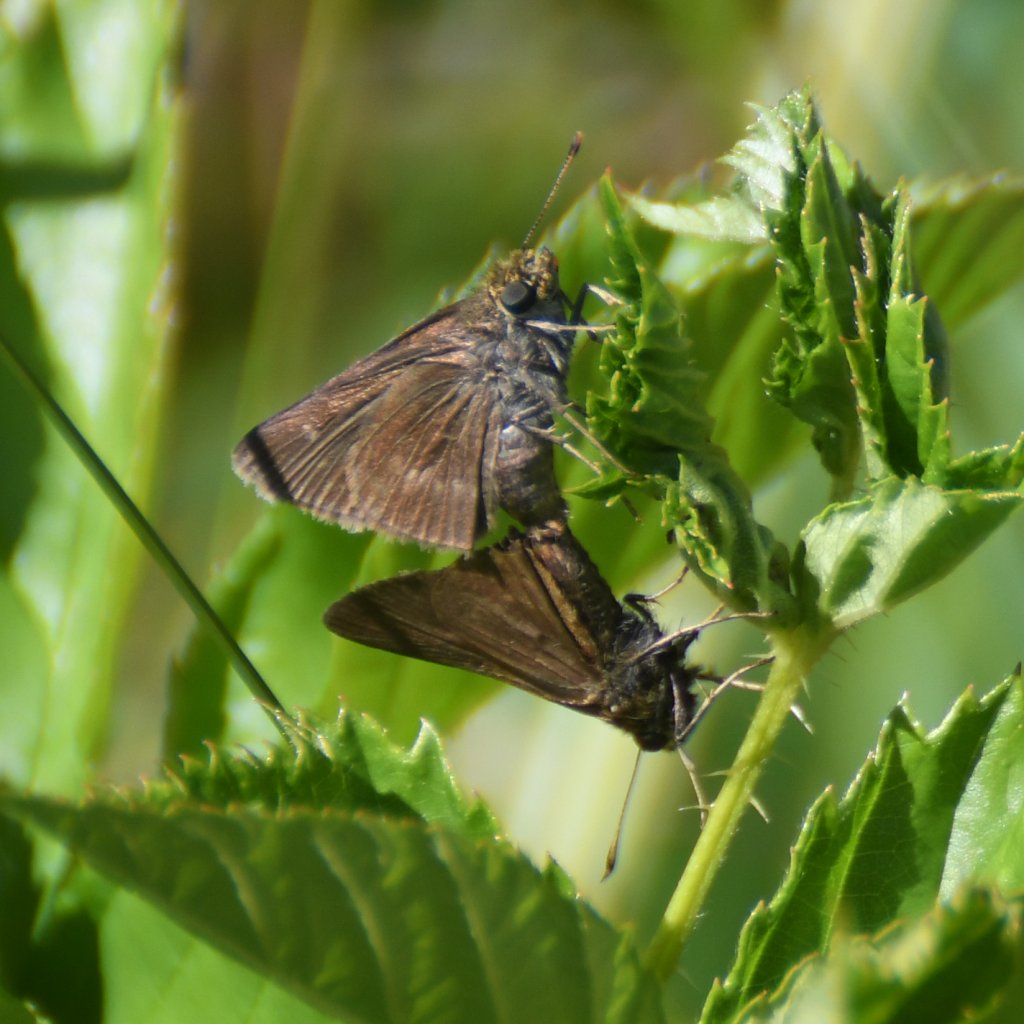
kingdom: Animalia
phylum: Arthropoda
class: Insecta
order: Lepidoptera
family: Hesperiidae
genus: Euphyes
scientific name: Euphyes vestris
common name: Dun Skipper
